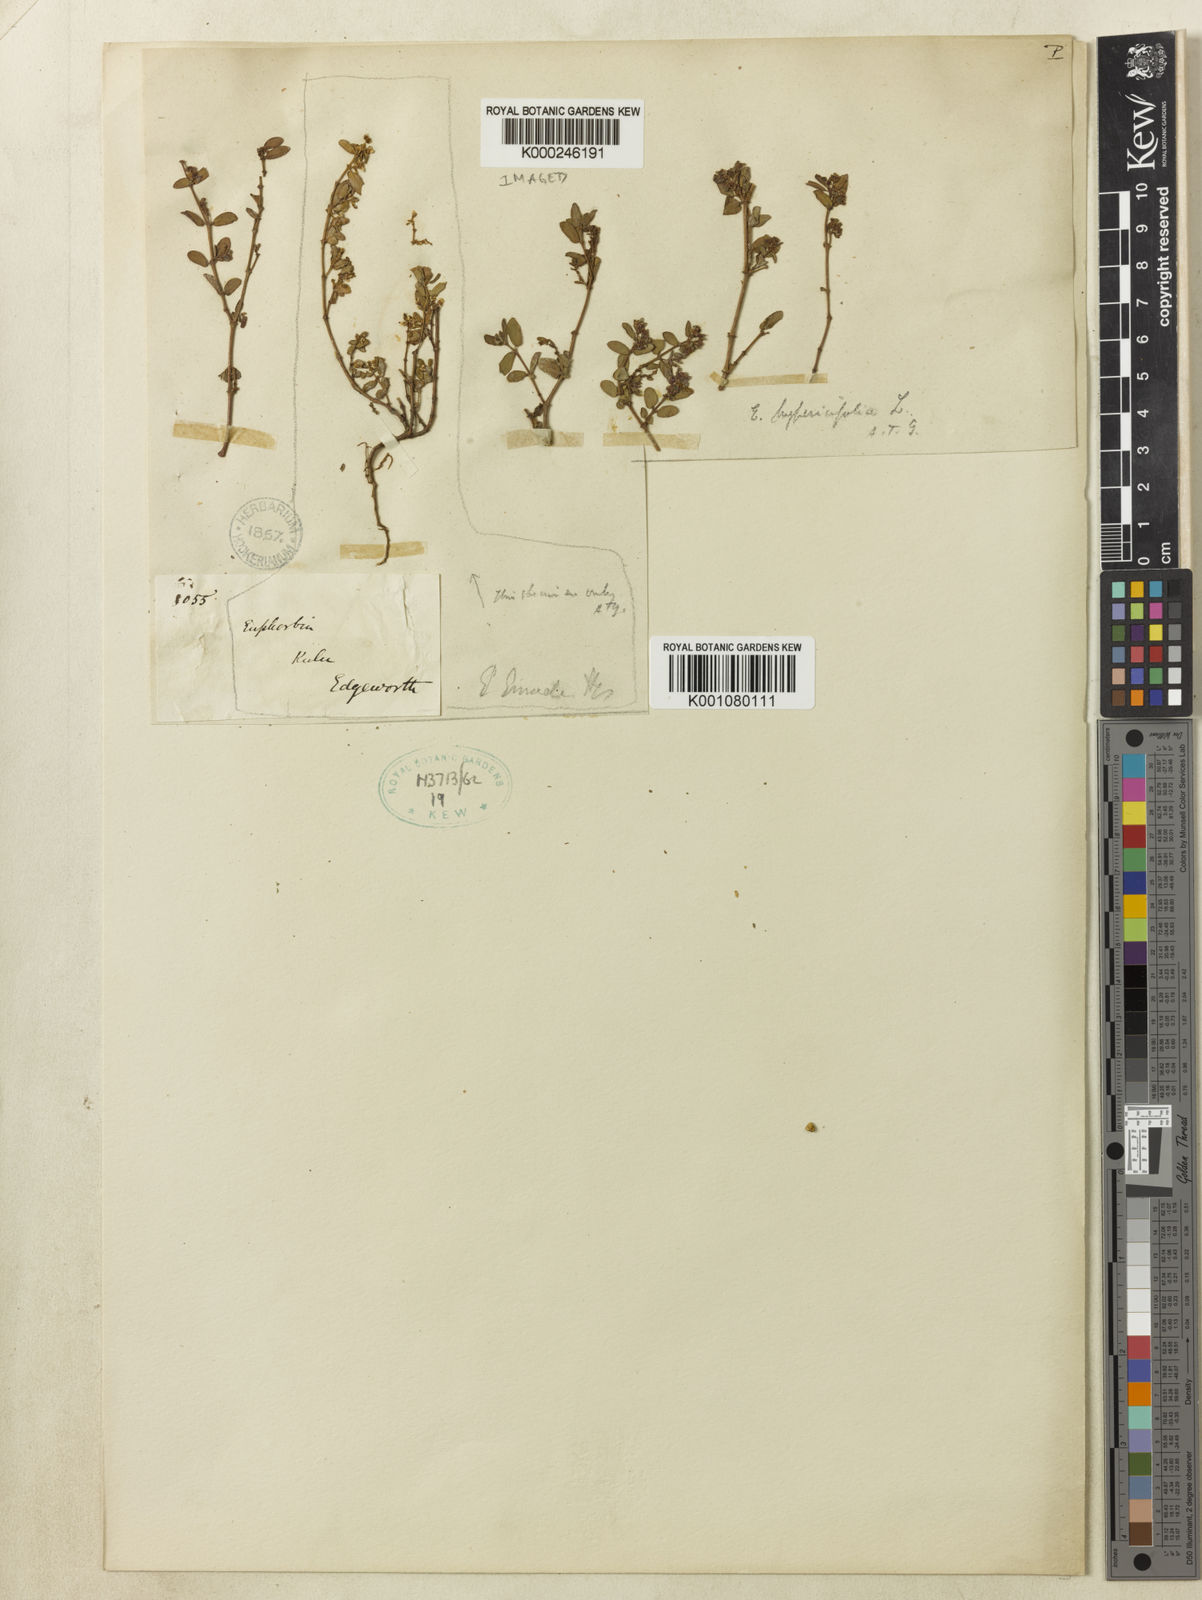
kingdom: Plantae
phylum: Tracheophyta
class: Magnoliopsida
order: Malpighiales
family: Euphorbiaceae
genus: Euphorbia
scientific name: Euphorbia hispida
